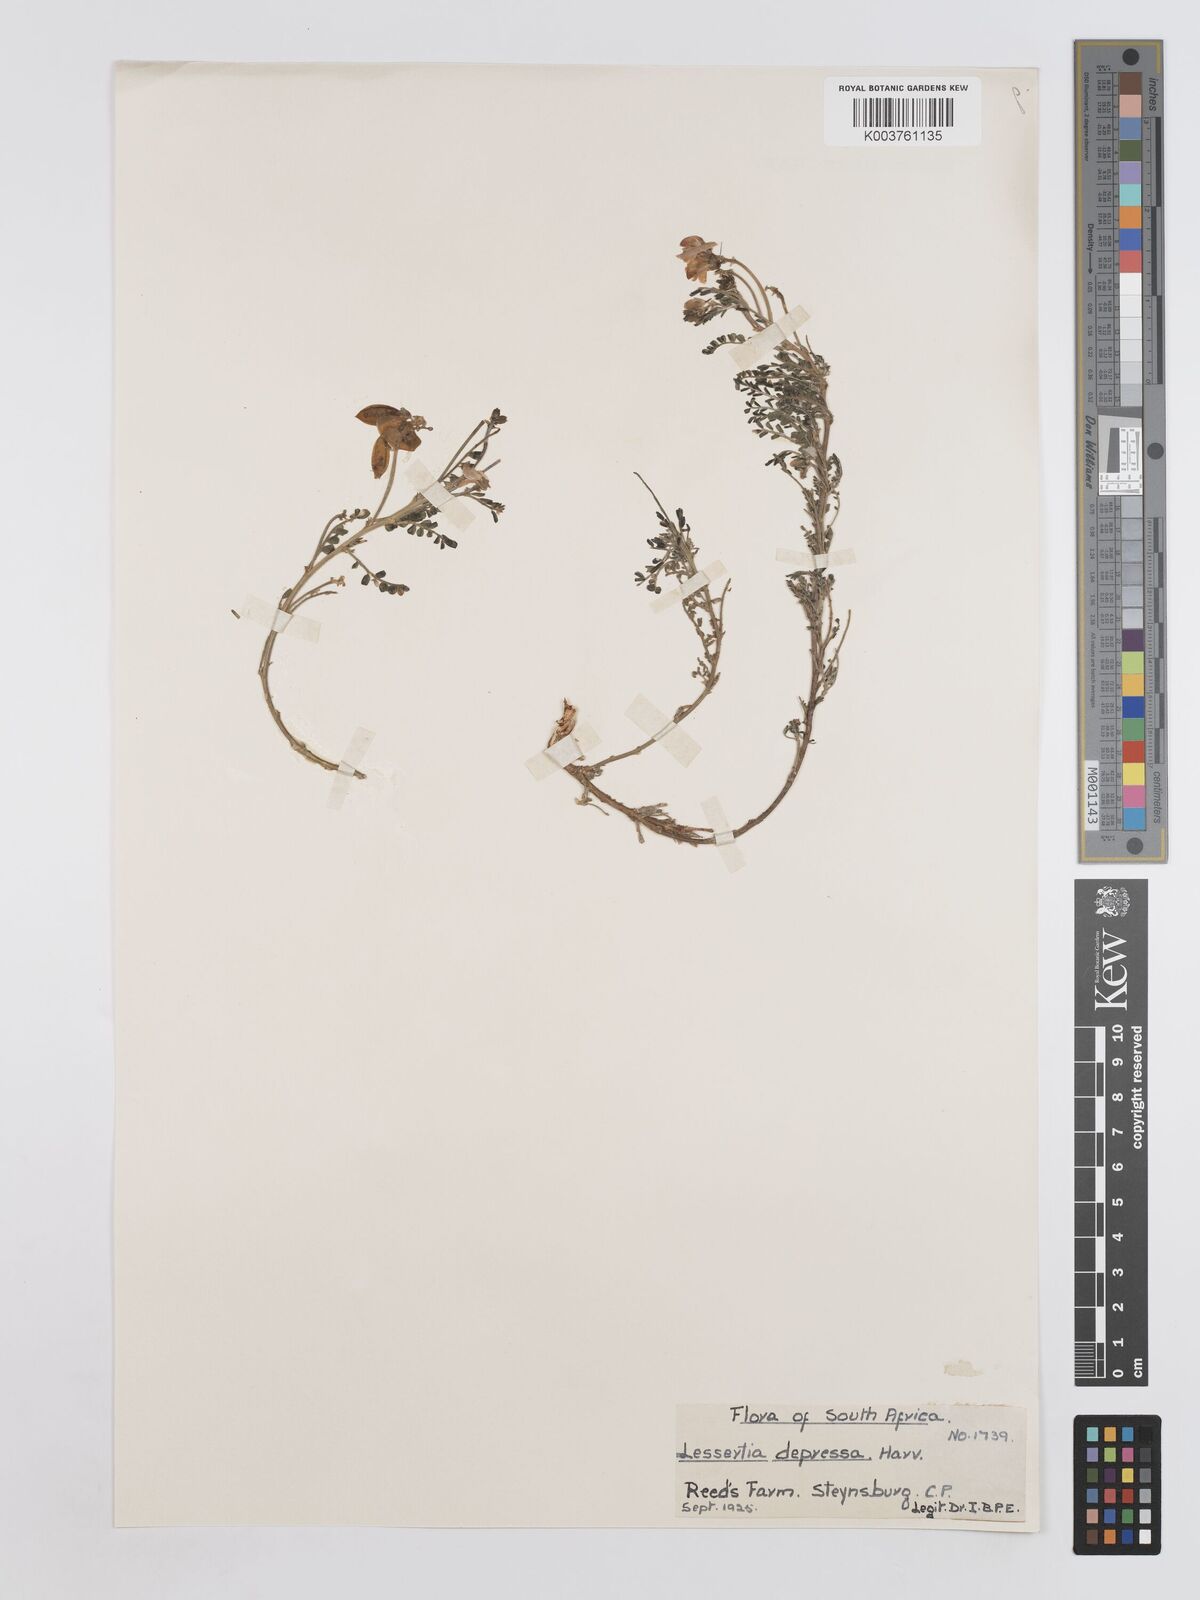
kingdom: Plantae
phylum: Tracheophyta
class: Magnoliopsida
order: Fabales
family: Fabaceae
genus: Lessertia
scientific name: Lessertia depressa
